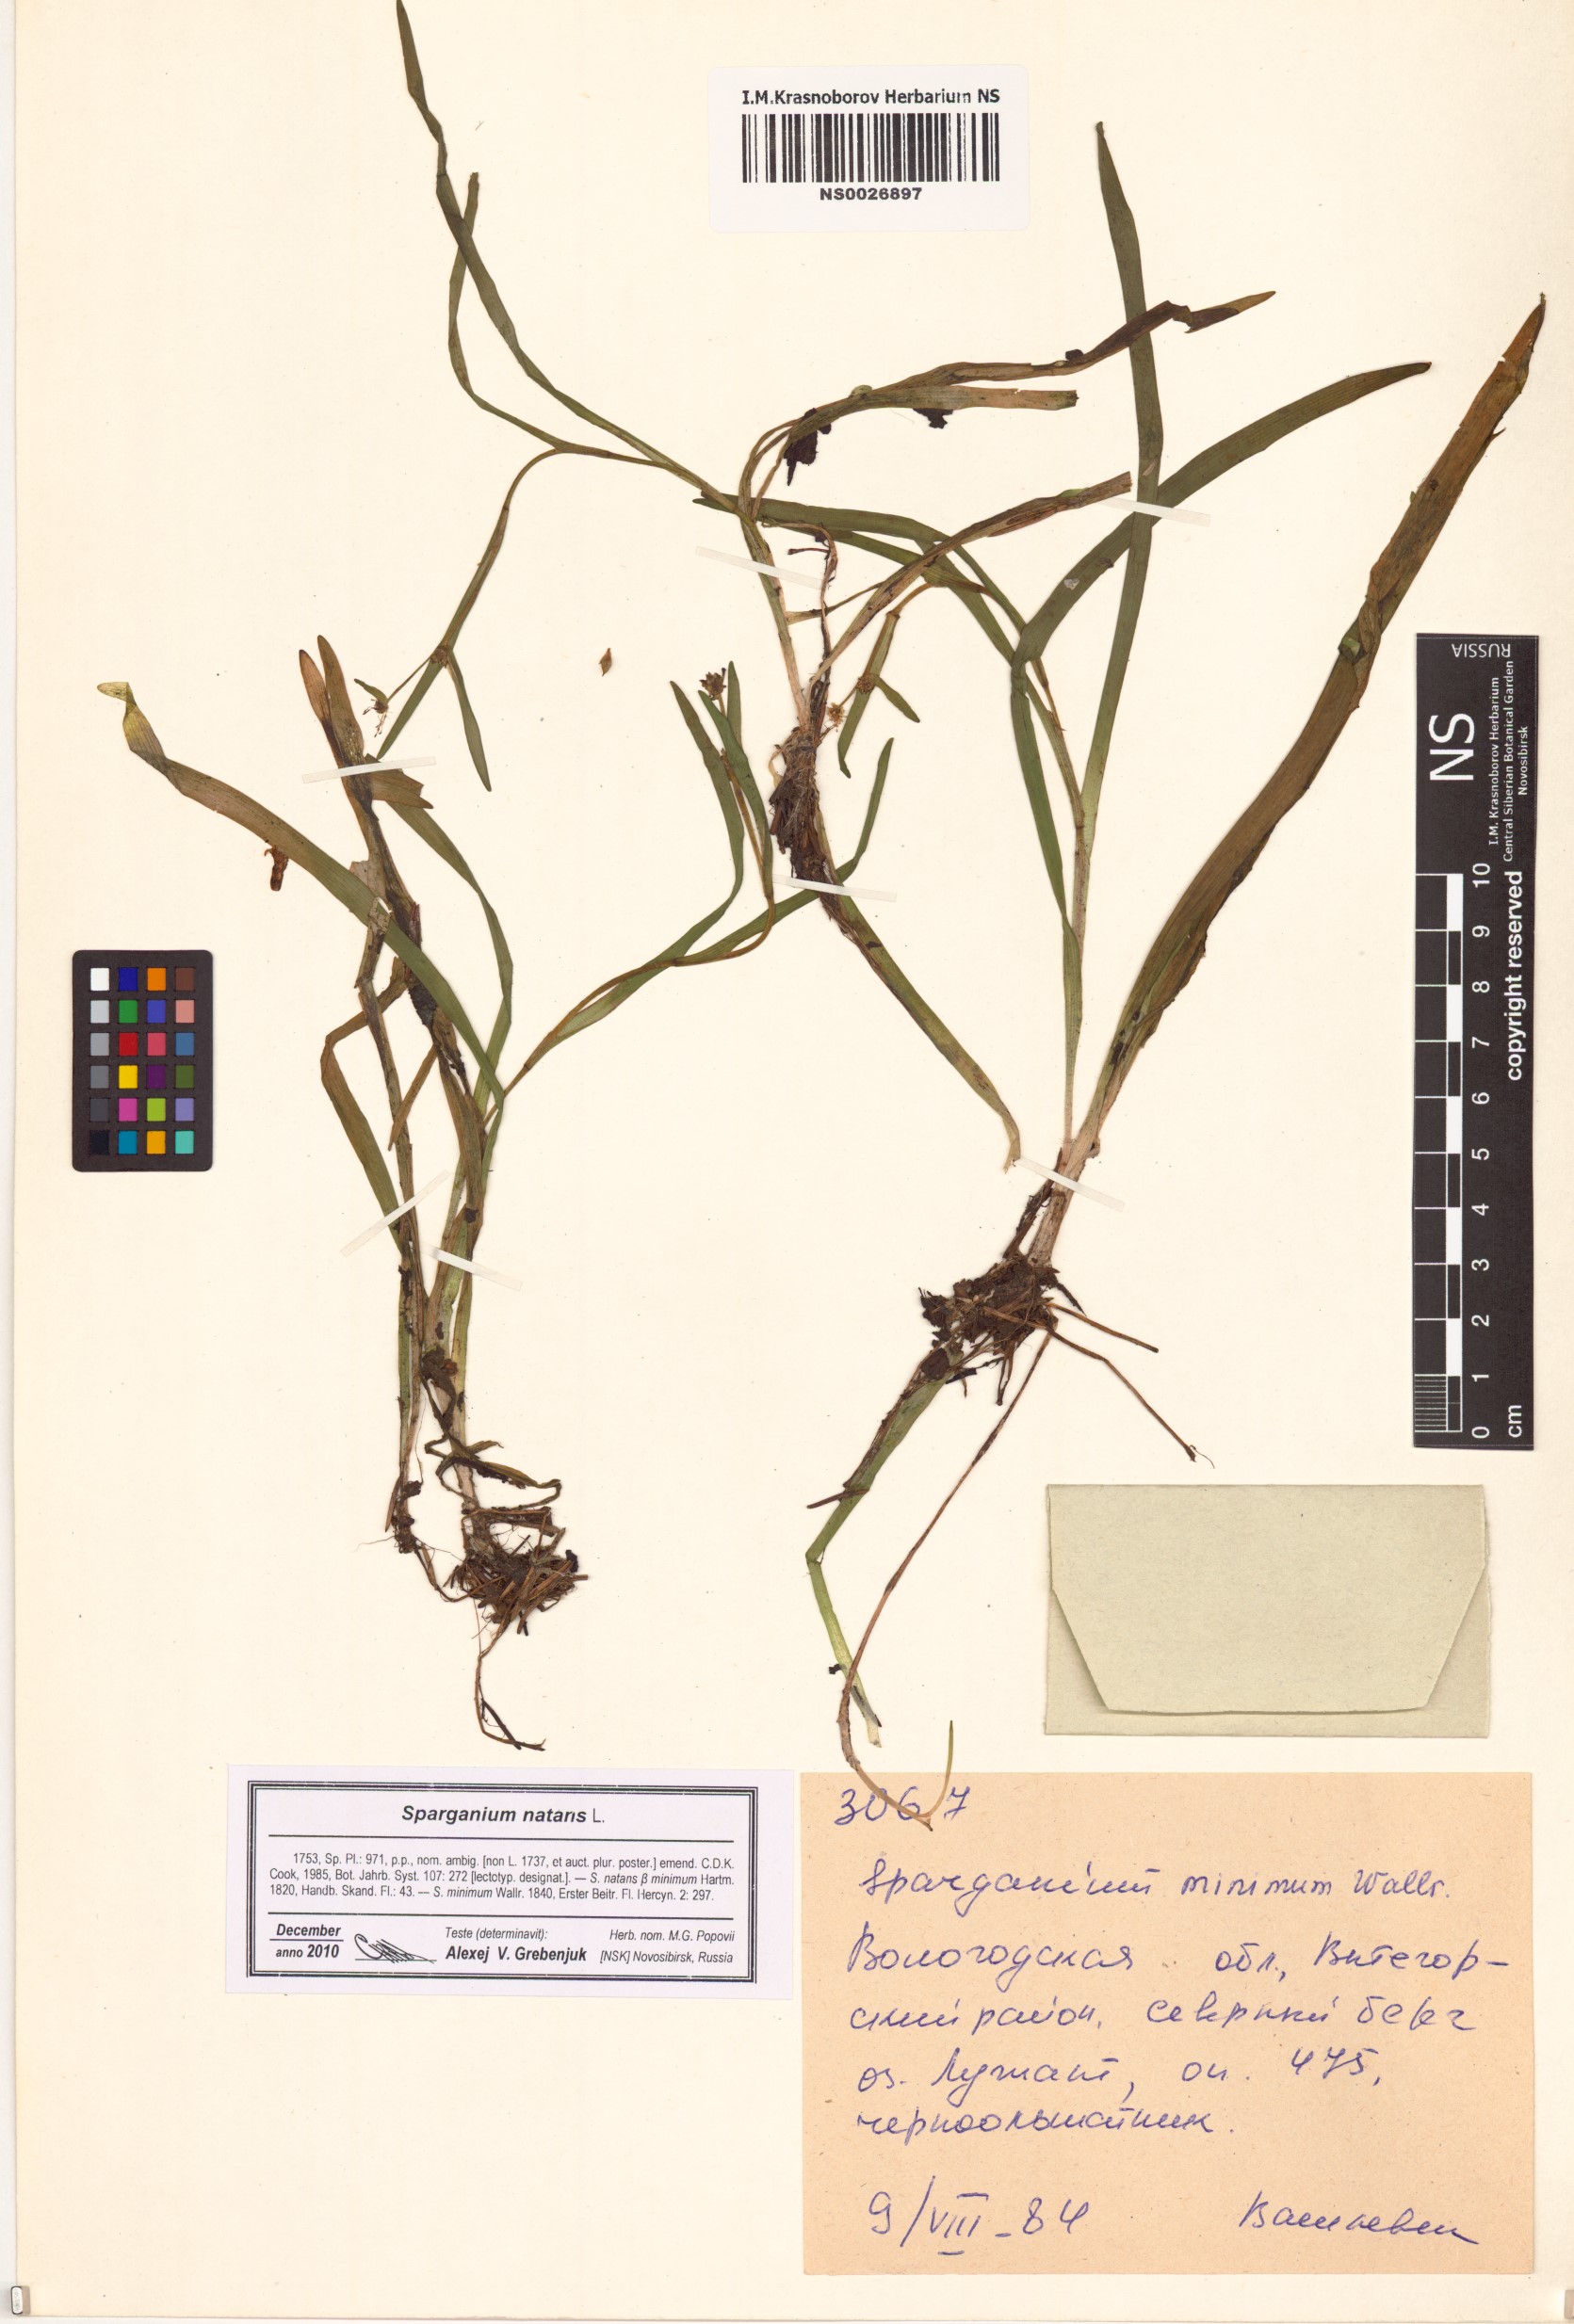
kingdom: Plantae
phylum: Tracheophyta
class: Liliopsida
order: Poales
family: Typhaceae
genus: Sparganium
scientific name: Sparganium natans
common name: Least bur-reed
